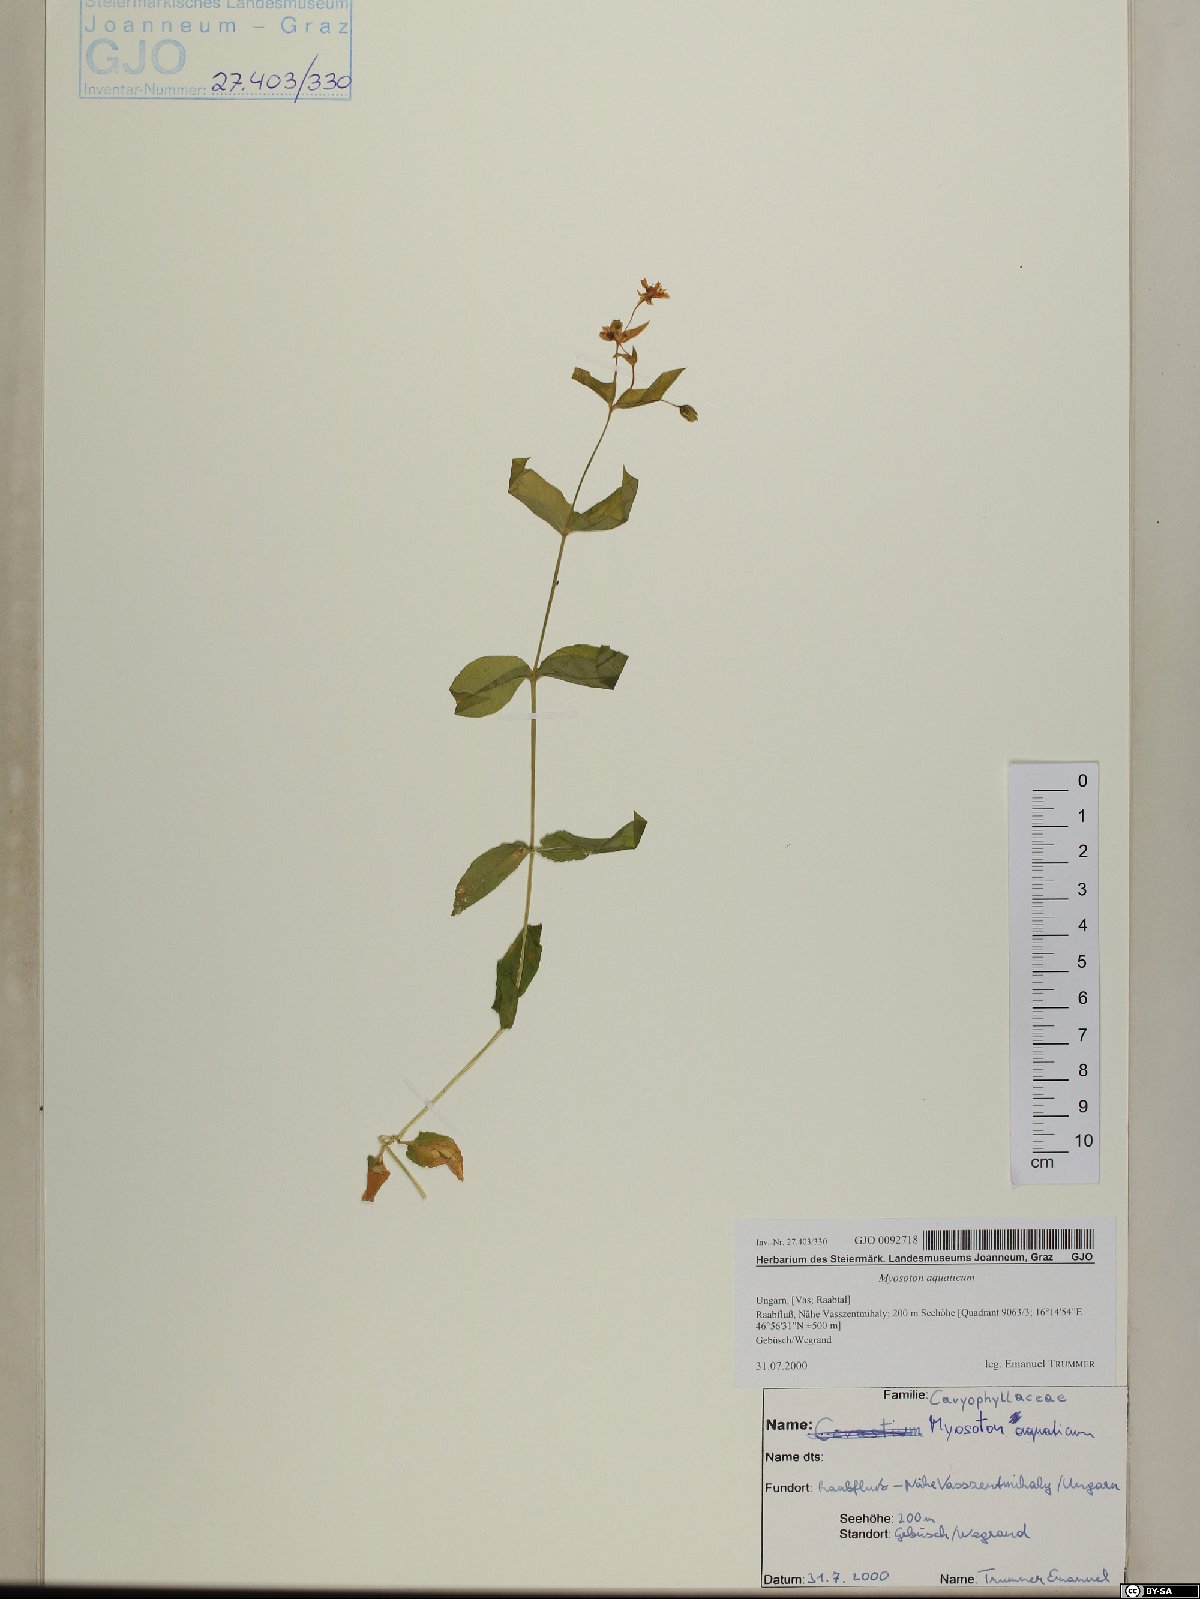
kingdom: Plantae
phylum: Tracheophyta
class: Magnoliopsida
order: Caryophyllales
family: Caryophyllaceae
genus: Stellaria
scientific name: Stellaria aquatica
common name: Water chickweed
